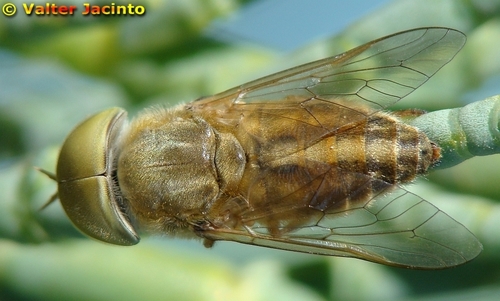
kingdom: Animalia
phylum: Arthropoda
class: Insecta
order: Diptera
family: Tabanidae
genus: Atylotus
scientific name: Atylotus quadrifarius
